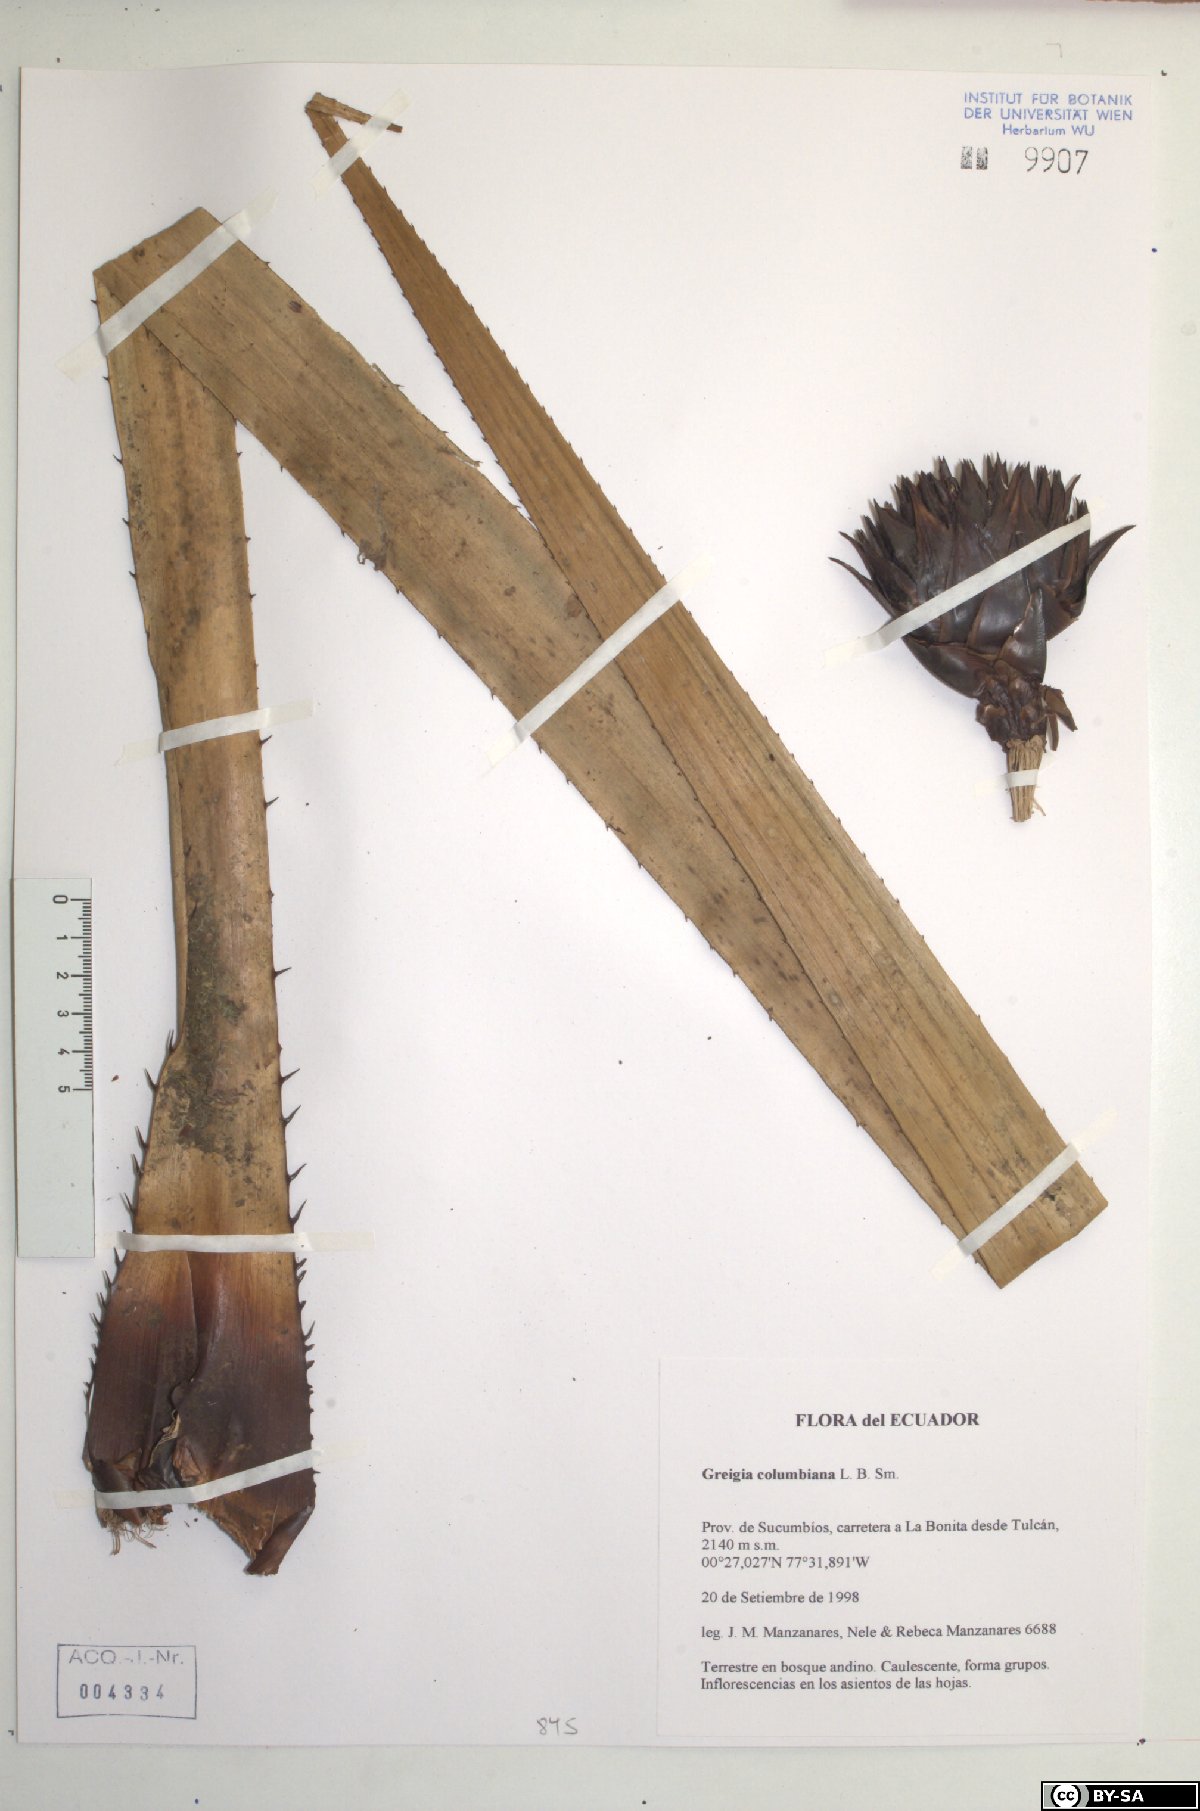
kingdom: Plantae
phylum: Tracheophyta
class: Liliopsida
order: Poales
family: Bromeliaceae
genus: Greigia
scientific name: Greigia columbiana
